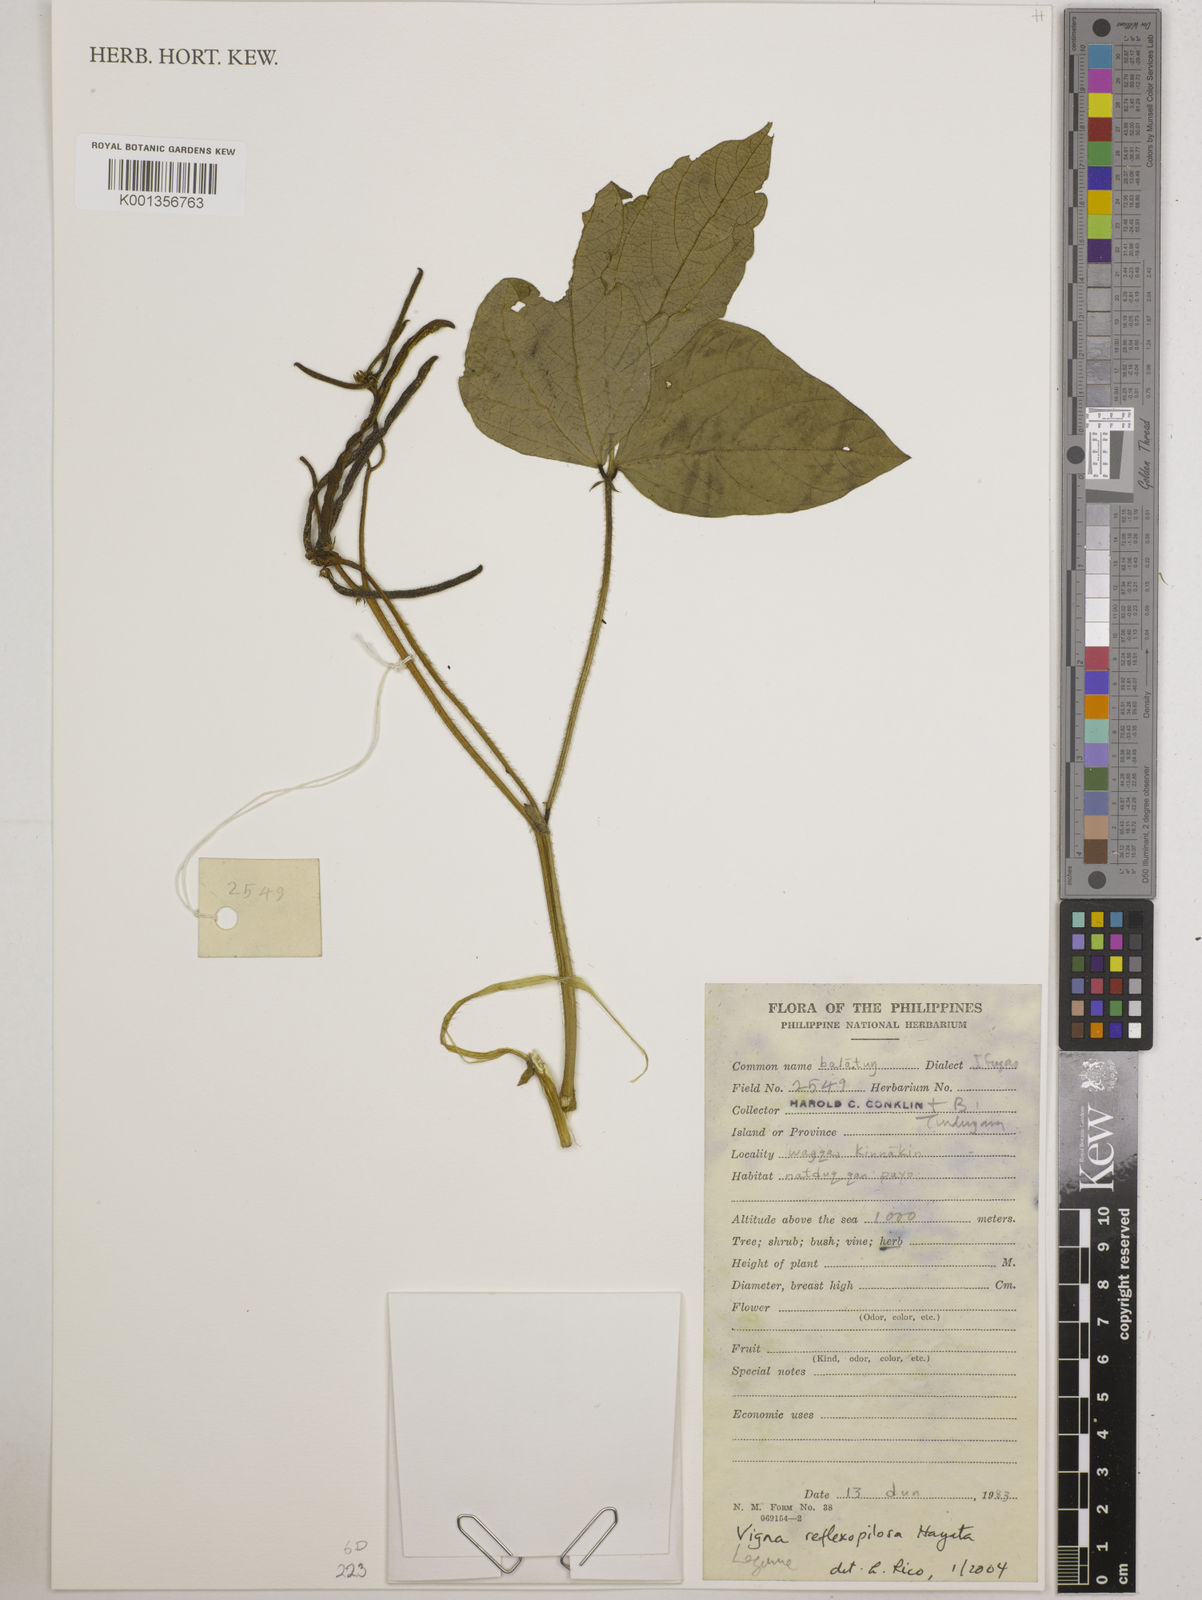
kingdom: Plantae
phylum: Tracheophyta
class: Magnoliopsida
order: Fabales
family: Fabaceae
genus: Vigna
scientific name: Vigna reflexopilosa
